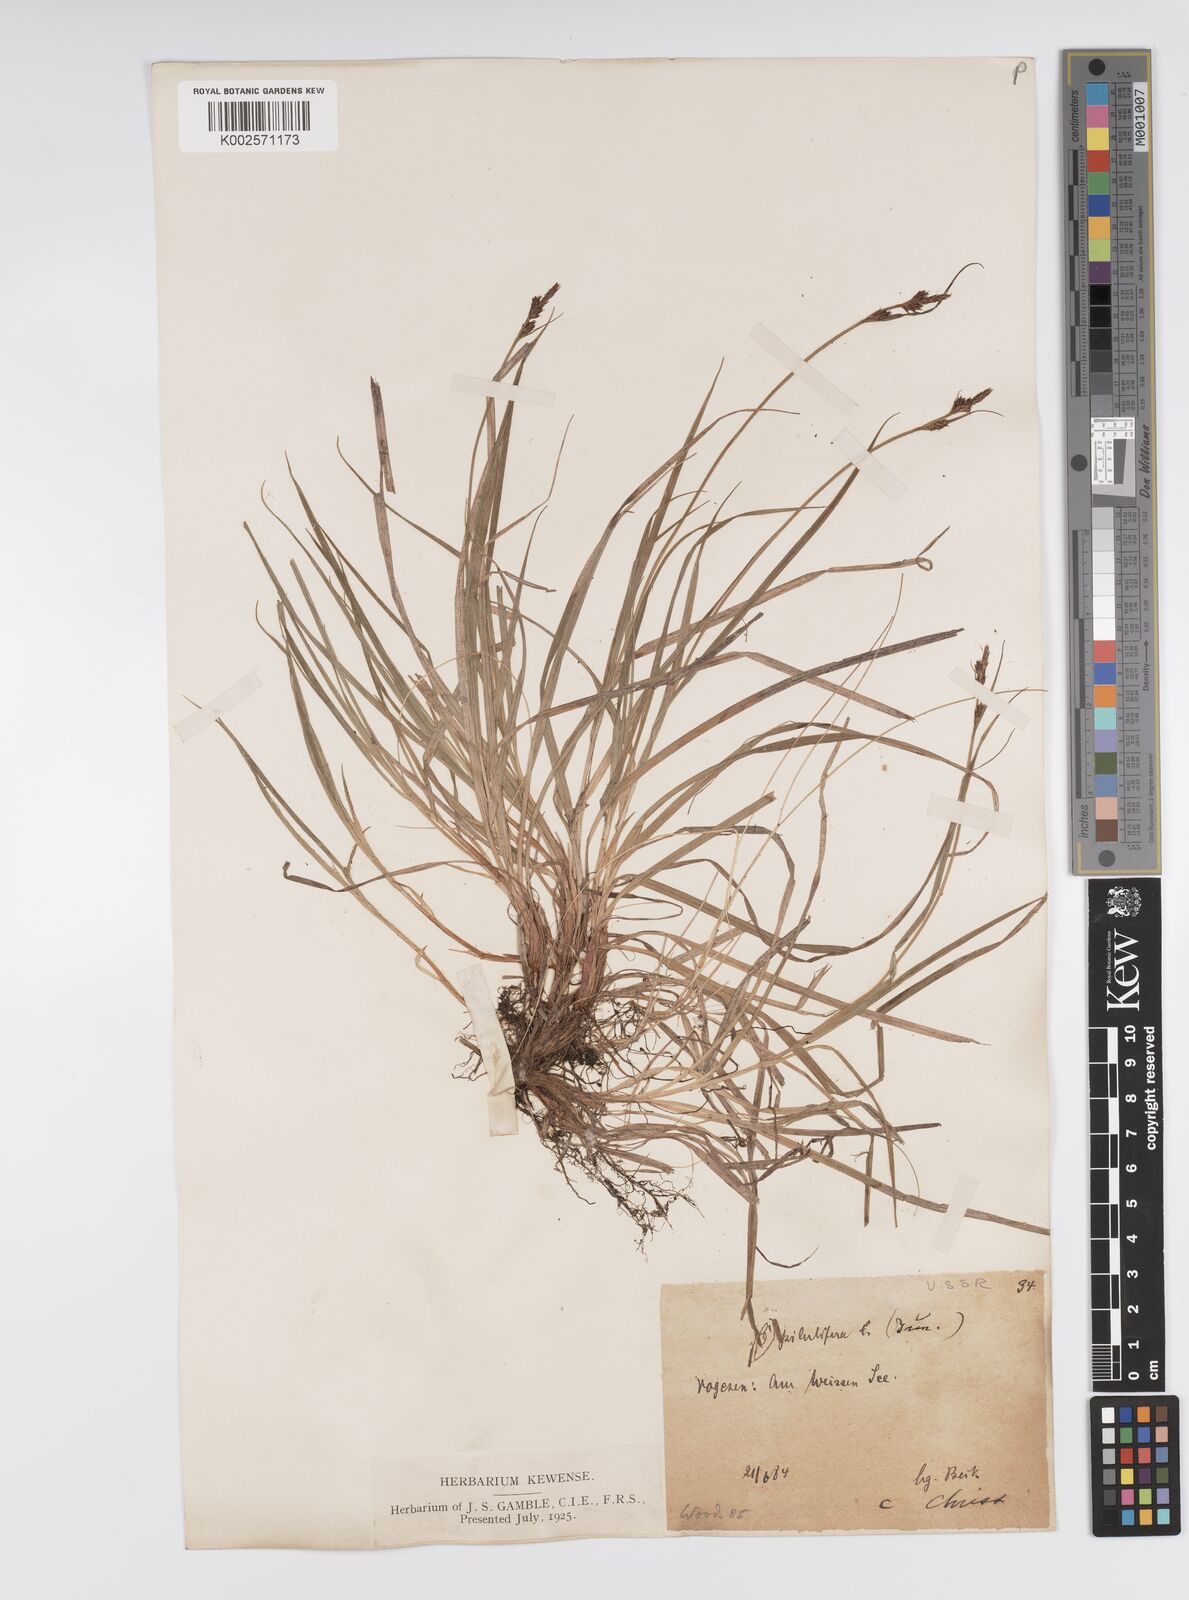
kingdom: Plantae
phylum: Tracheophyta
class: Liliopsida
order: Poales
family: Cyperaceae
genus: Carex
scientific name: Carex pilulifera
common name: Pill sedge
